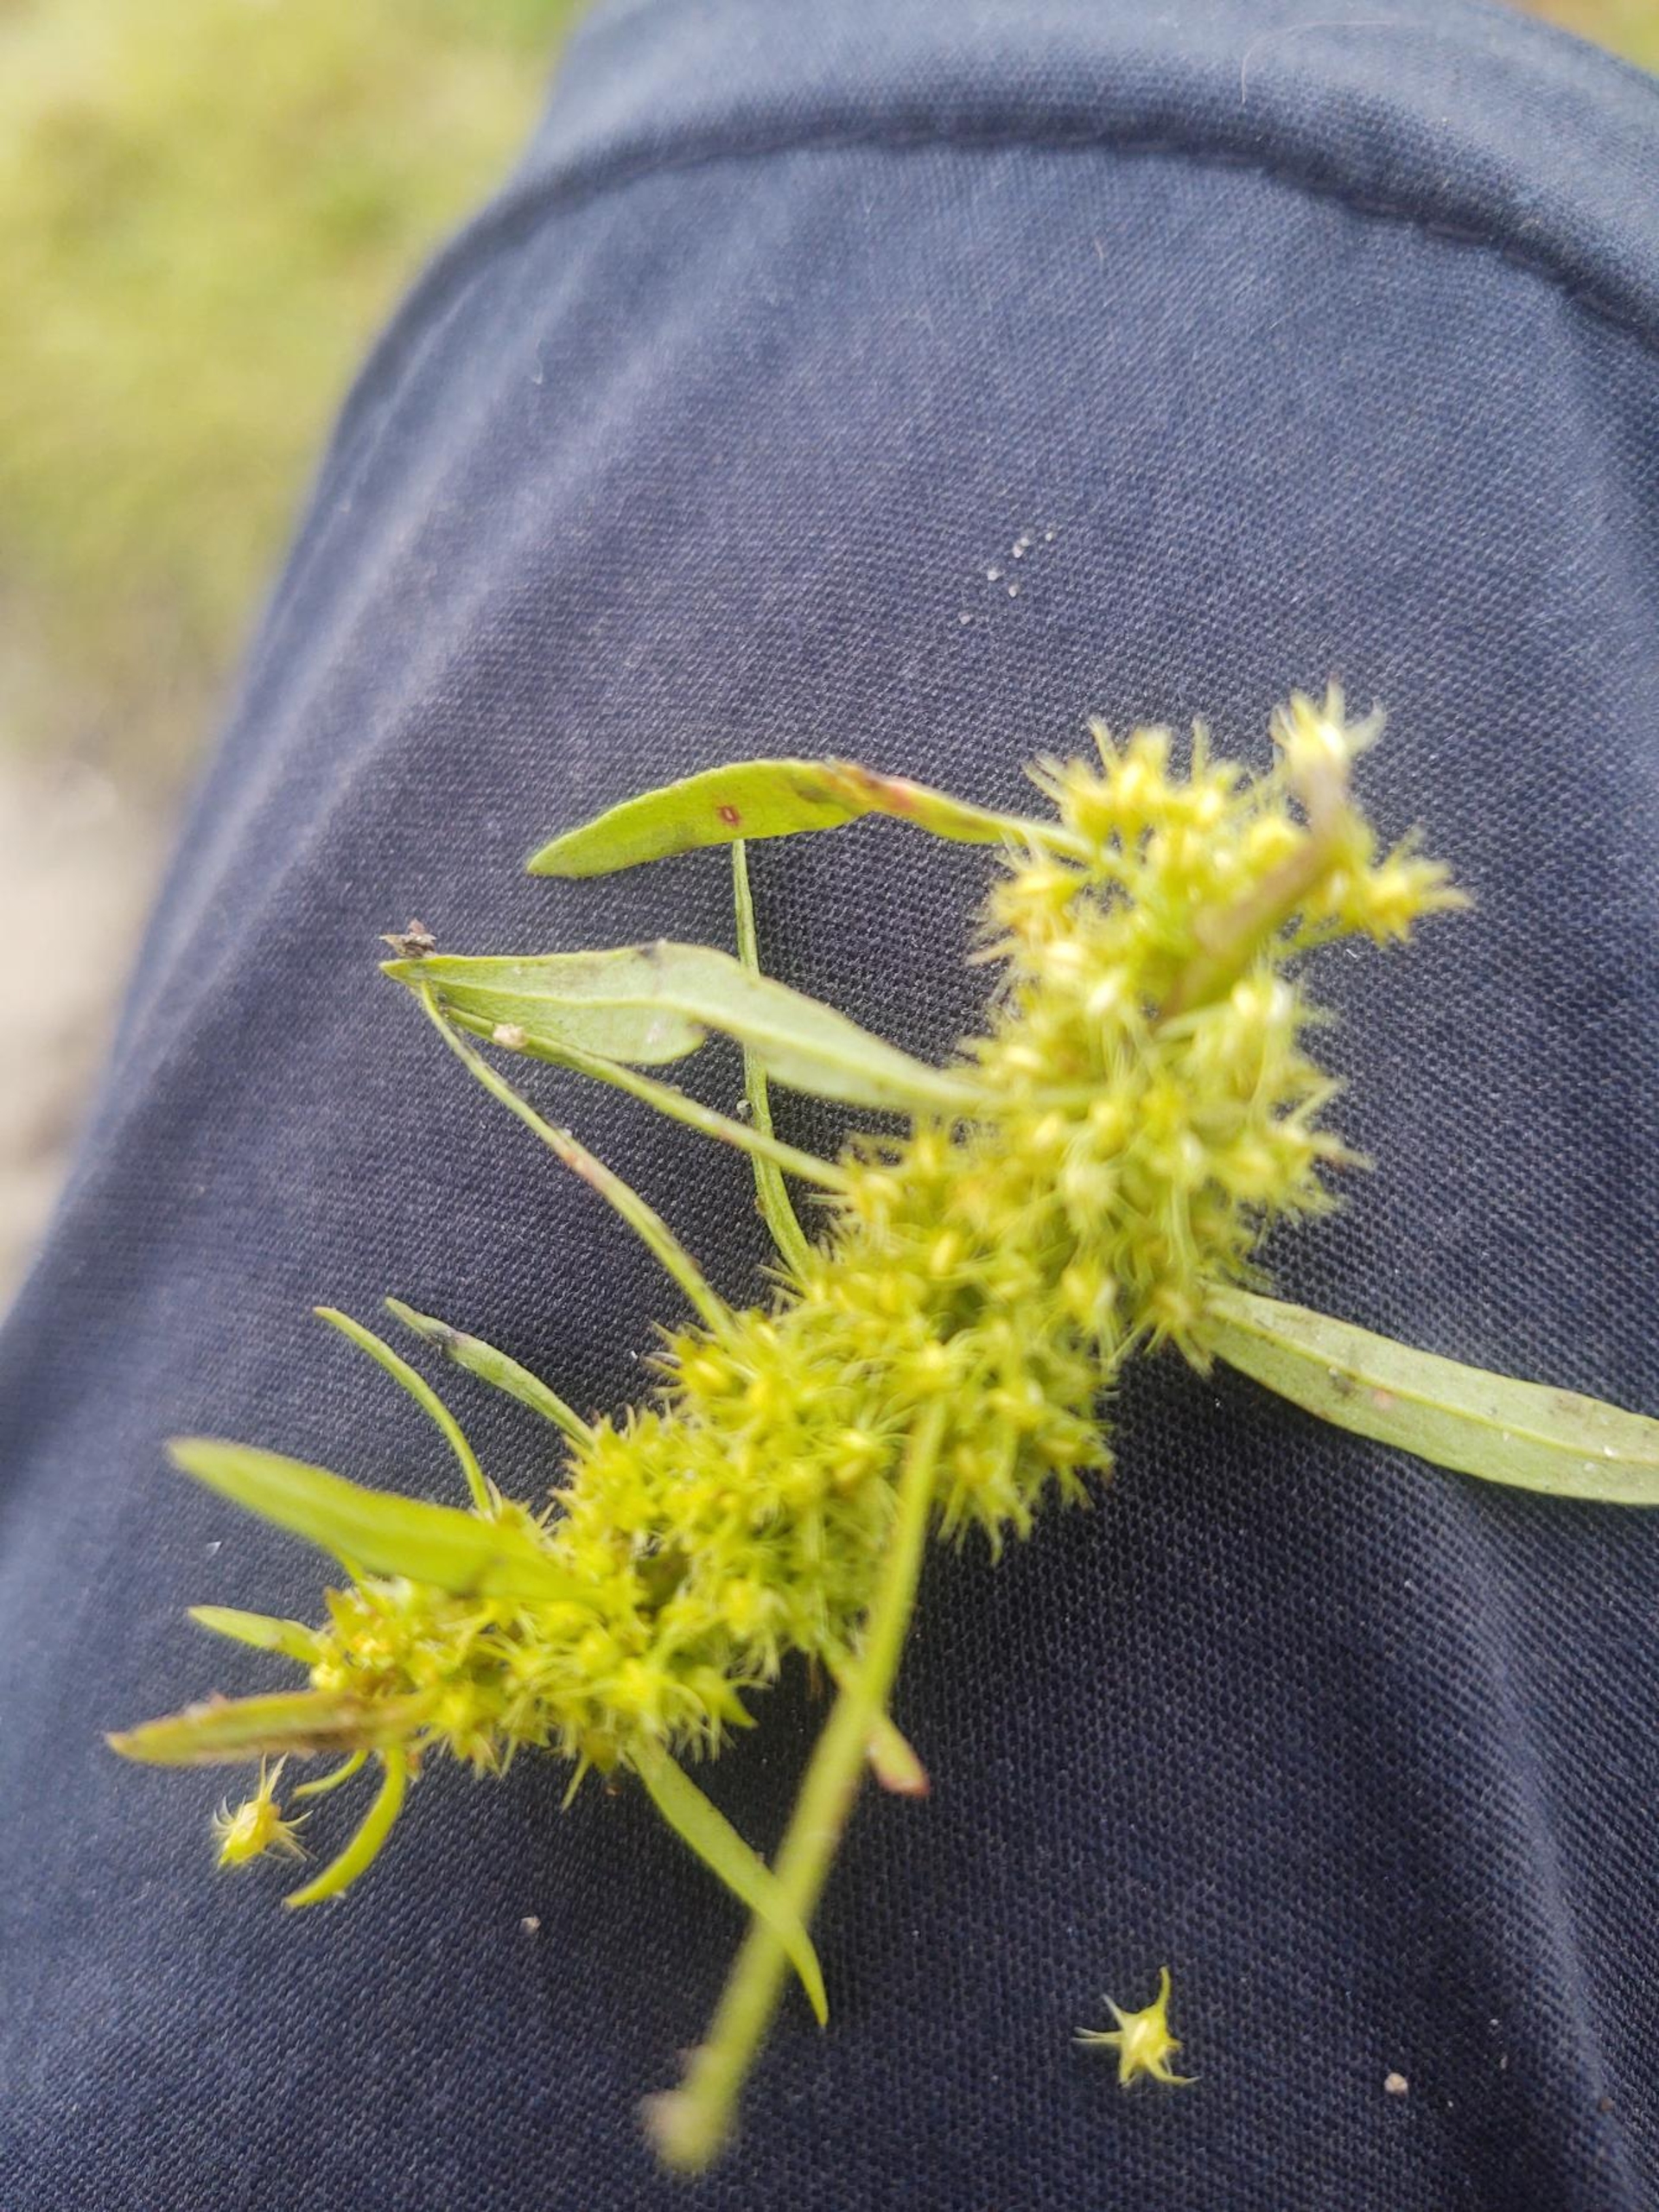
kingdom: Plantae
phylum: Tracheophyta
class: Magnoliopsida
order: Caryophyllales
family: Polygonaceae
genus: Rumex
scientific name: Rumex maritimus
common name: Strand-skræppe
